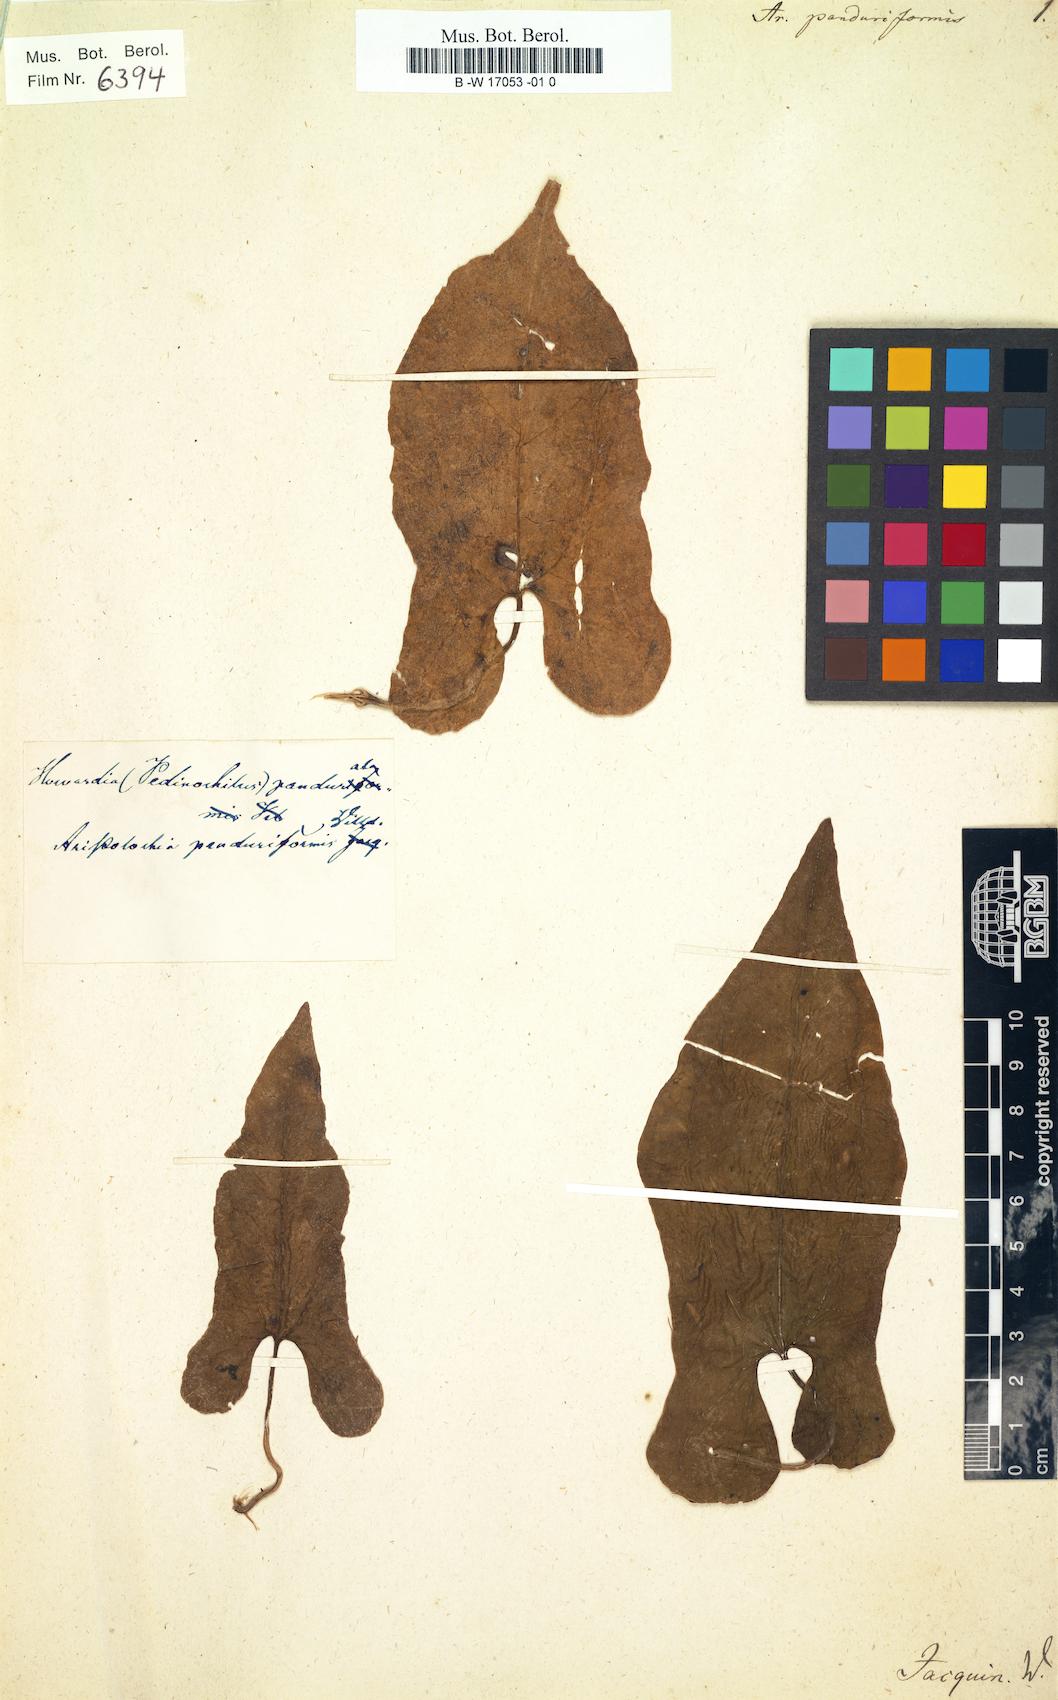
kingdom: Plantae
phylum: Tracheophyta
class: Magnoliopsida
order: Piperales
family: Aristolochiaceae
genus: Aristolochia
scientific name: Aristolochia odoratissima
